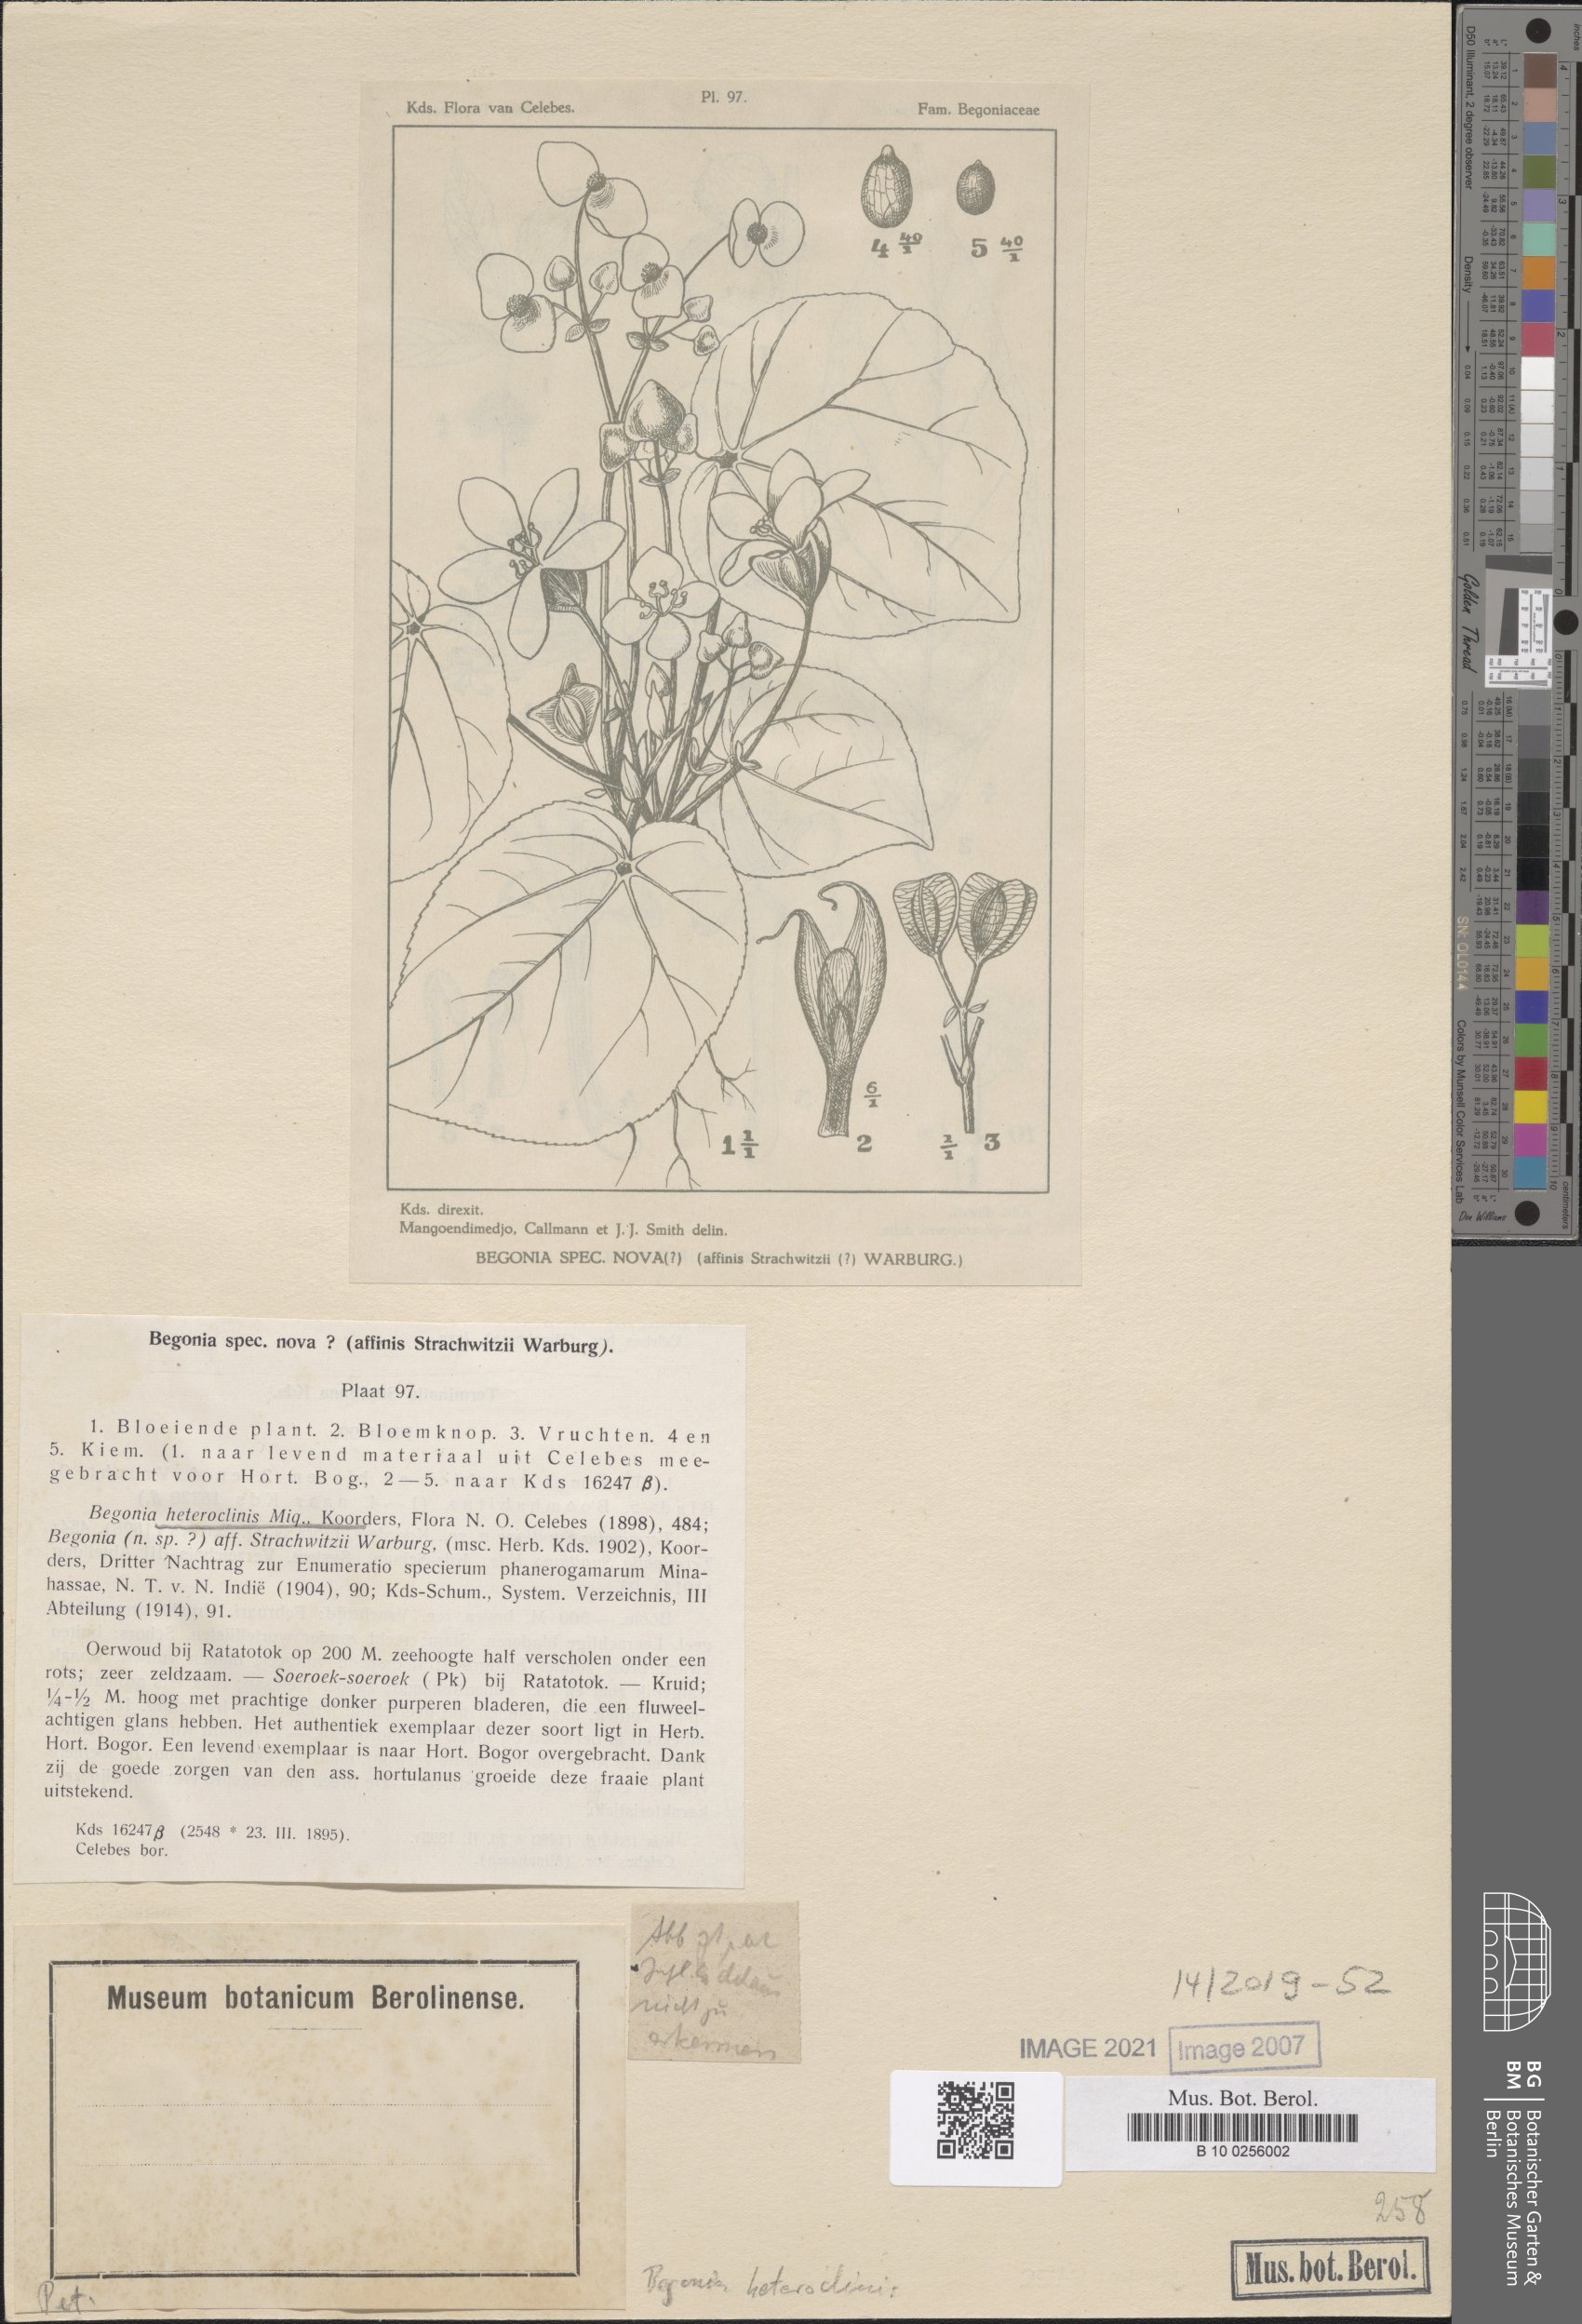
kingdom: Plantae
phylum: Tracheophyta
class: Magnoliopsida
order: Cucurbitales
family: Begoniaceae
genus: Begonia
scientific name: Begonia heteroclinis
